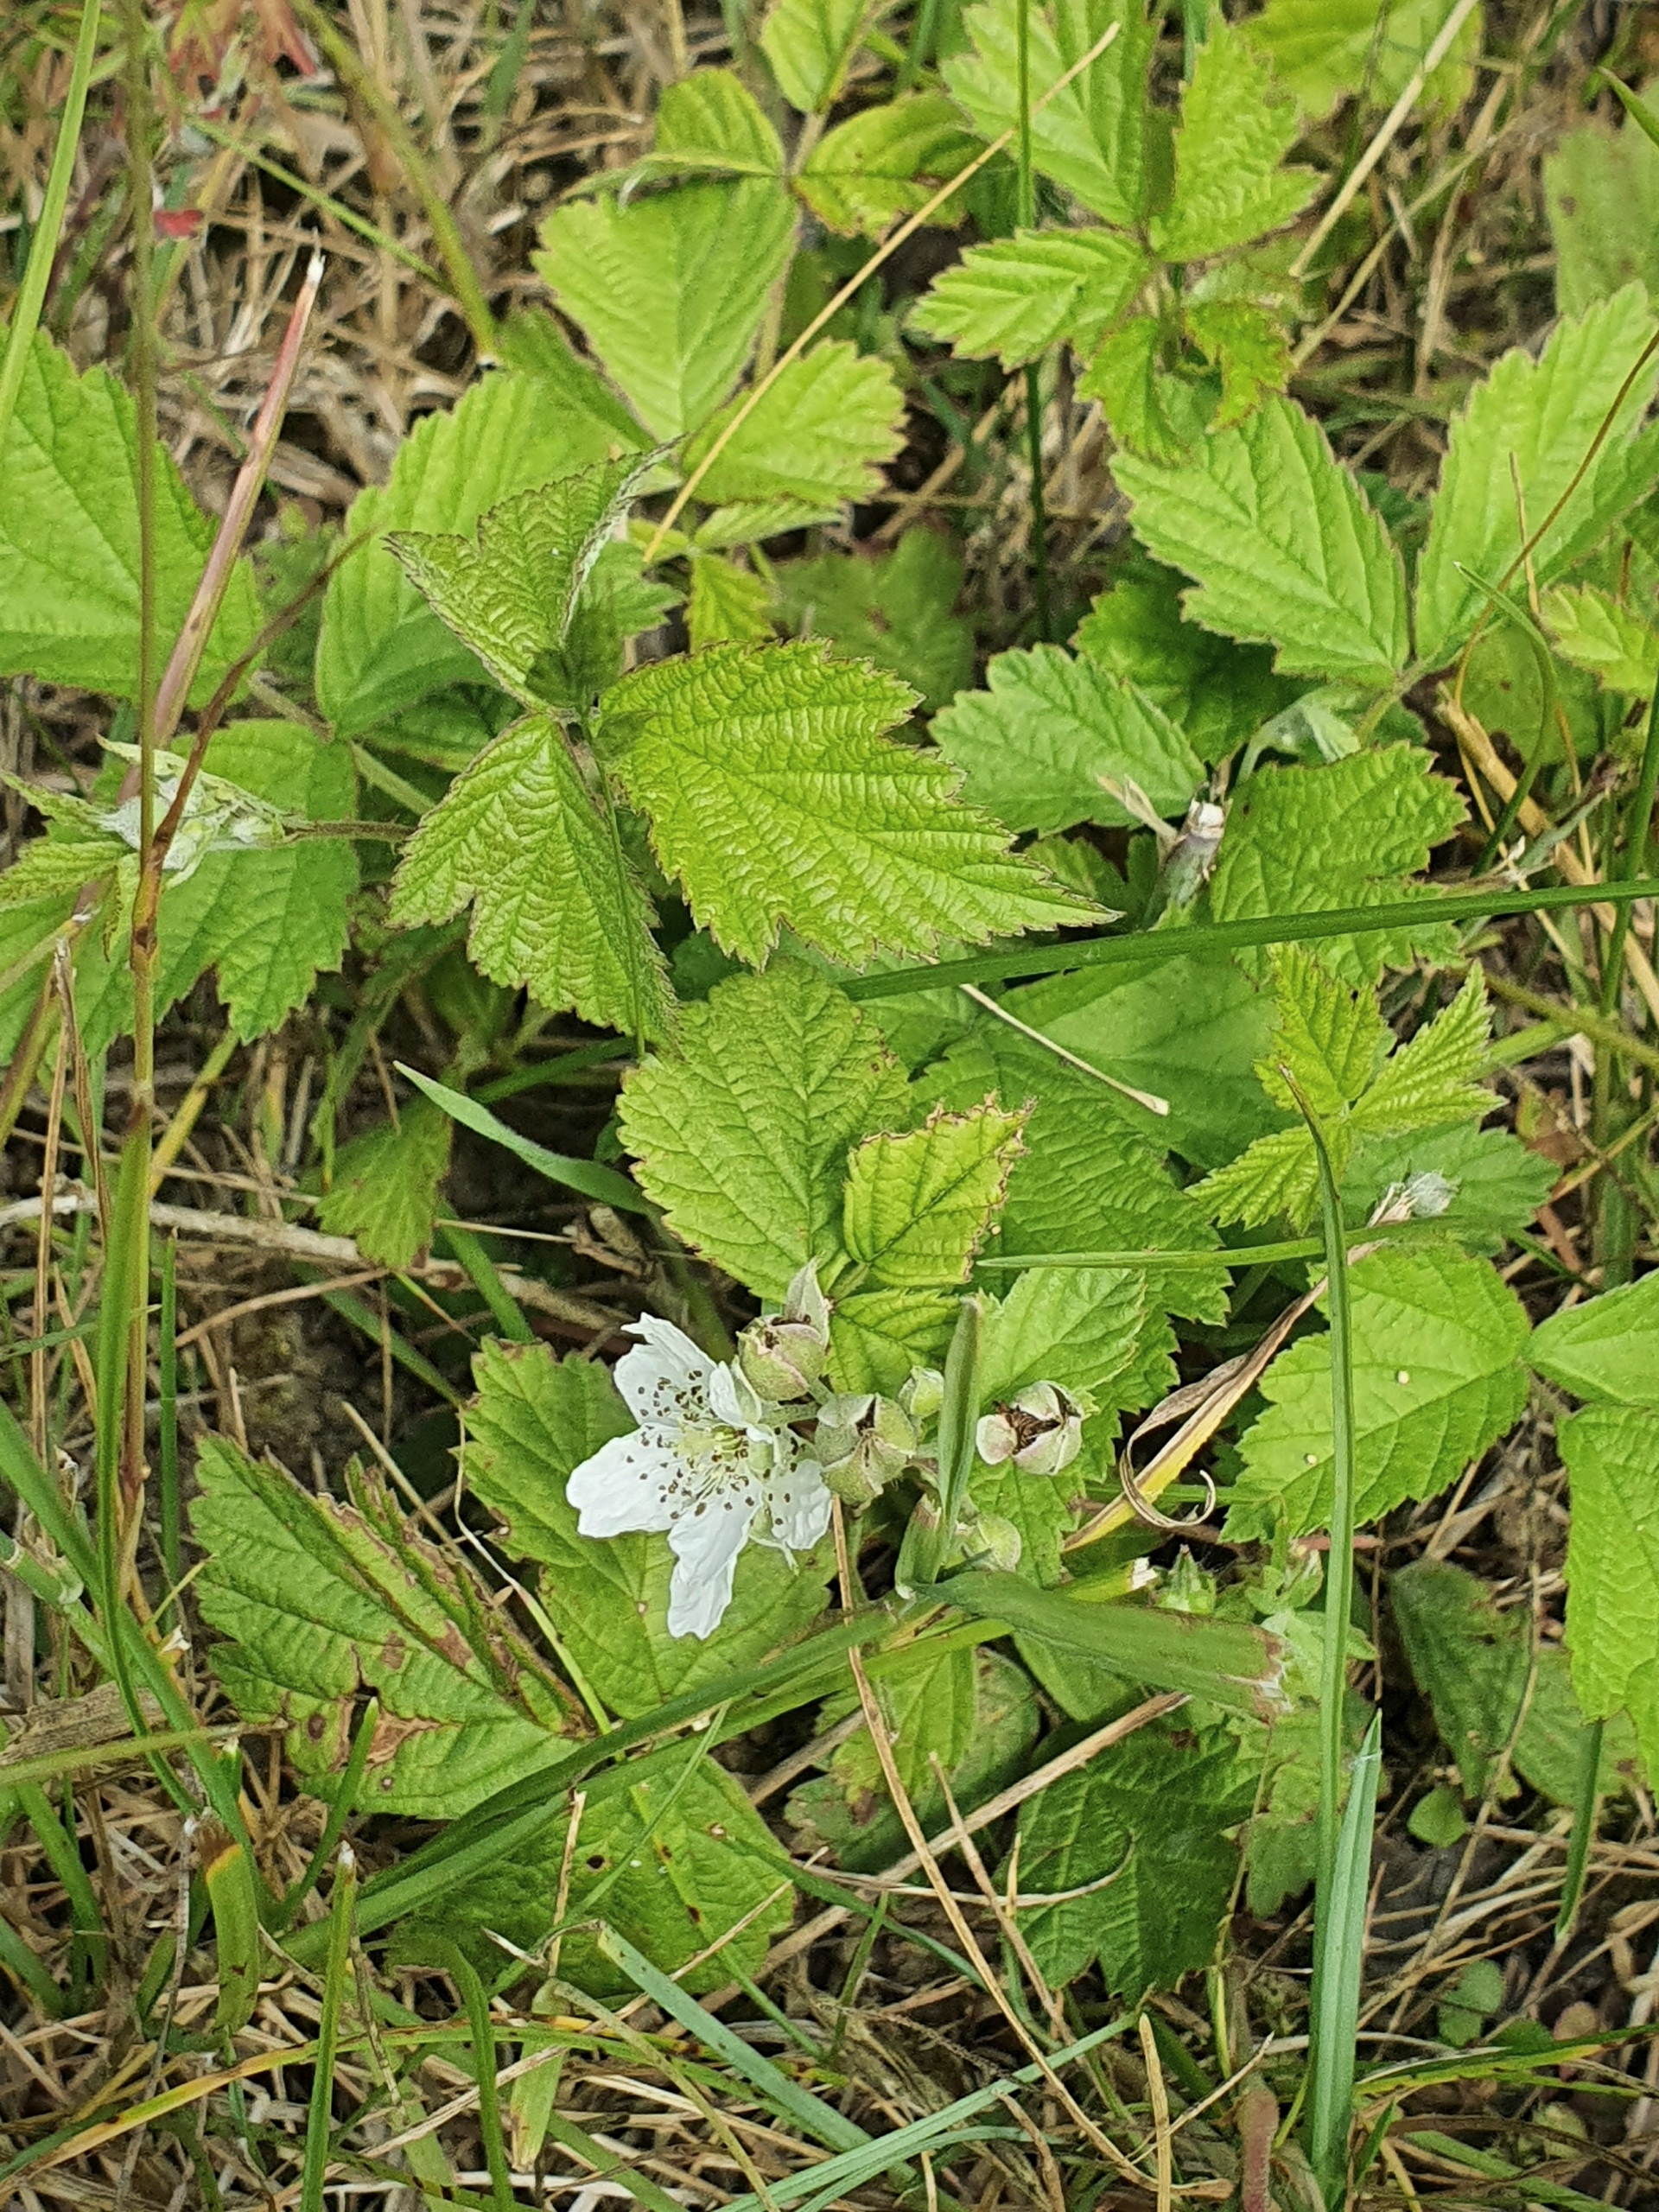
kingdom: Plantae
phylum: Tracheophyta
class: Magnoliopsida
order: Rosales
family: Rosaceae
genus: Rubus
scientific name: Rubus caesius
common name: Korbær
